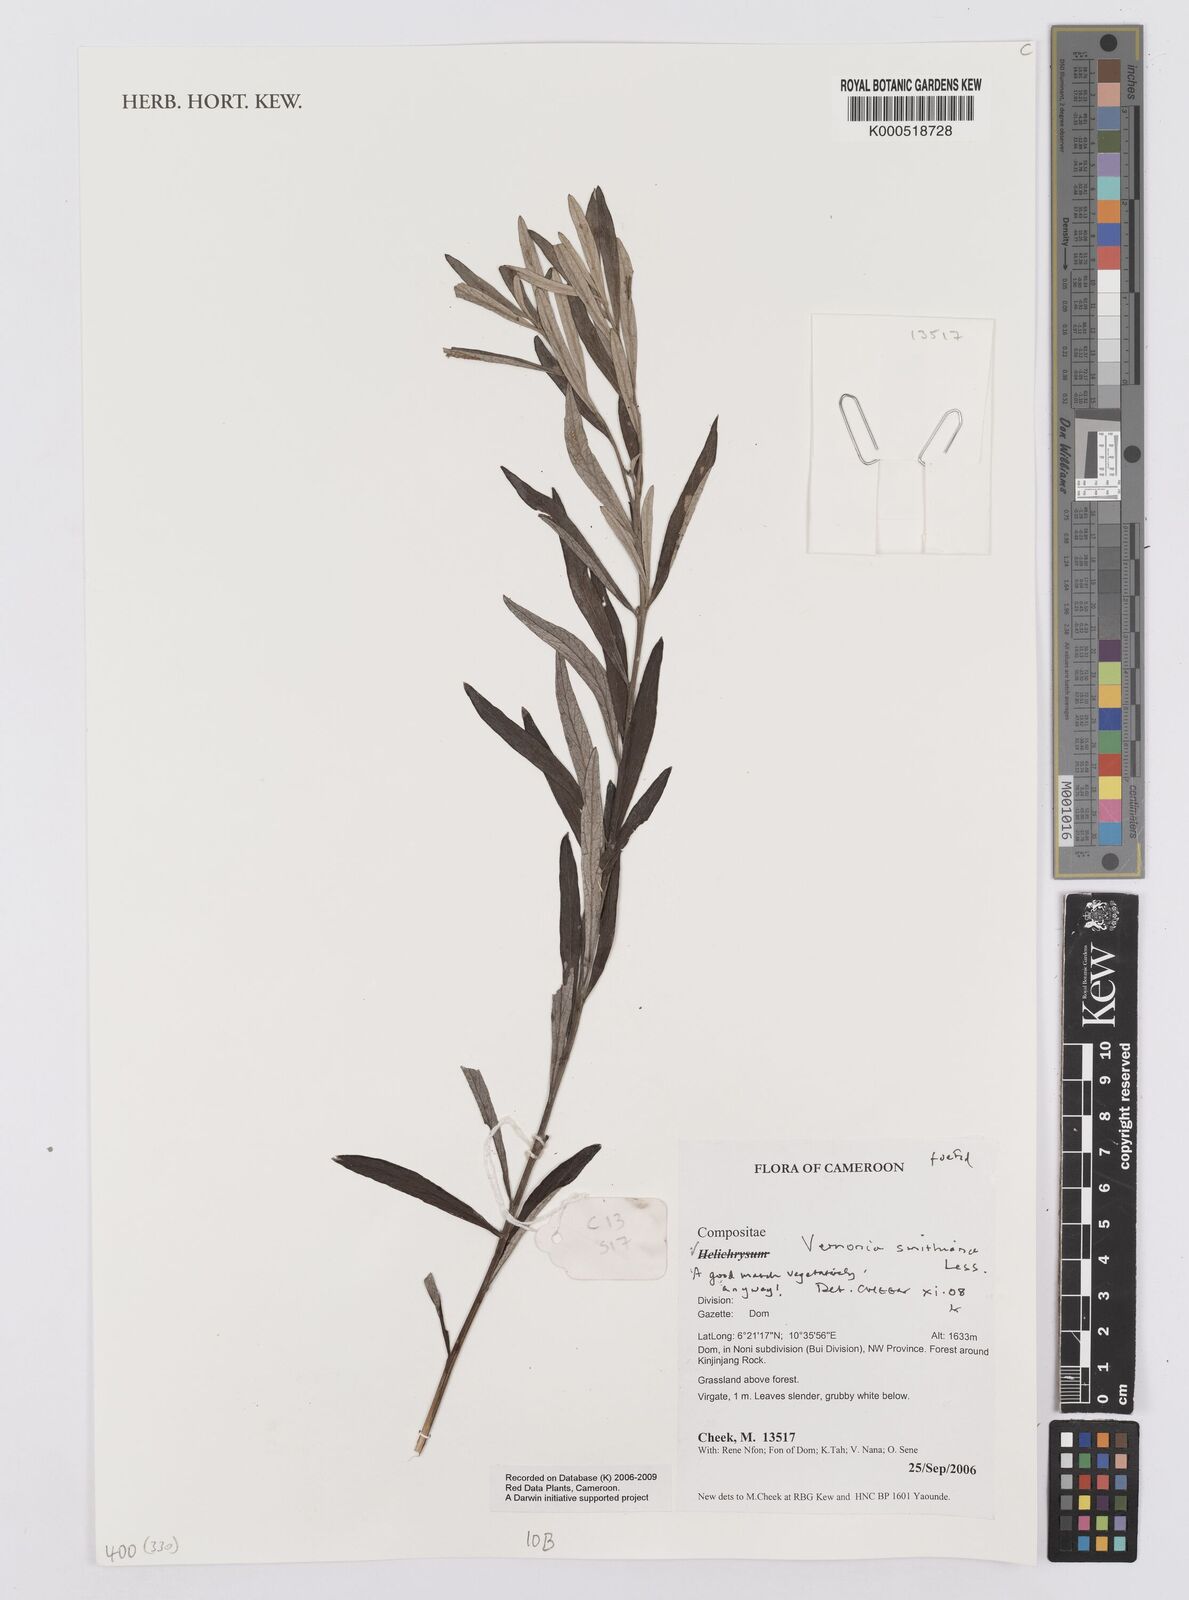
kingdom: Plantae
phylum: Tracheophyta
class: Magnoliopsida
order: Asterales
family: Asteraceae
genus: Hilliardiella
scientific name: Hilliardiella smithiana
